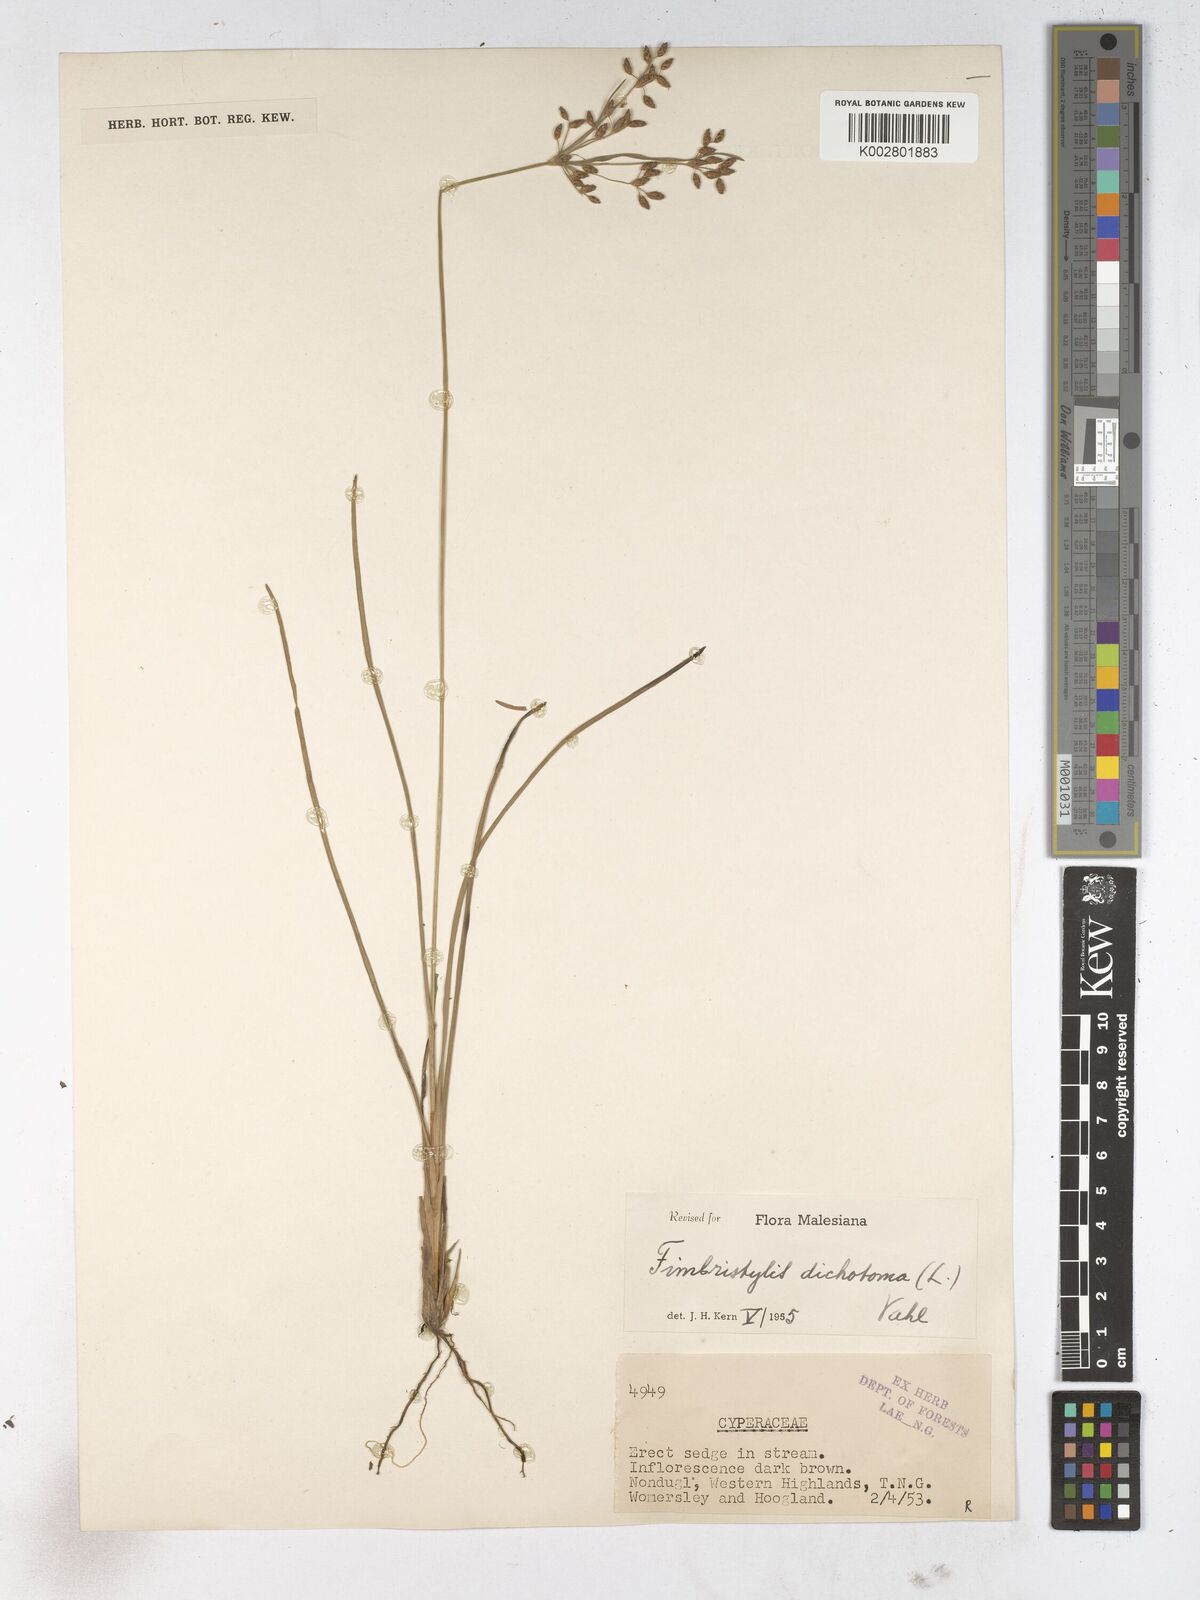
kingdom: Plantae
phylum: Tracheophyta
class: Liliopsida
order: Poales
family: Cyperaceae
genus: Fimbristylis
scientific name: Fimbristylis dichotoma
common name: Forked fimbry
